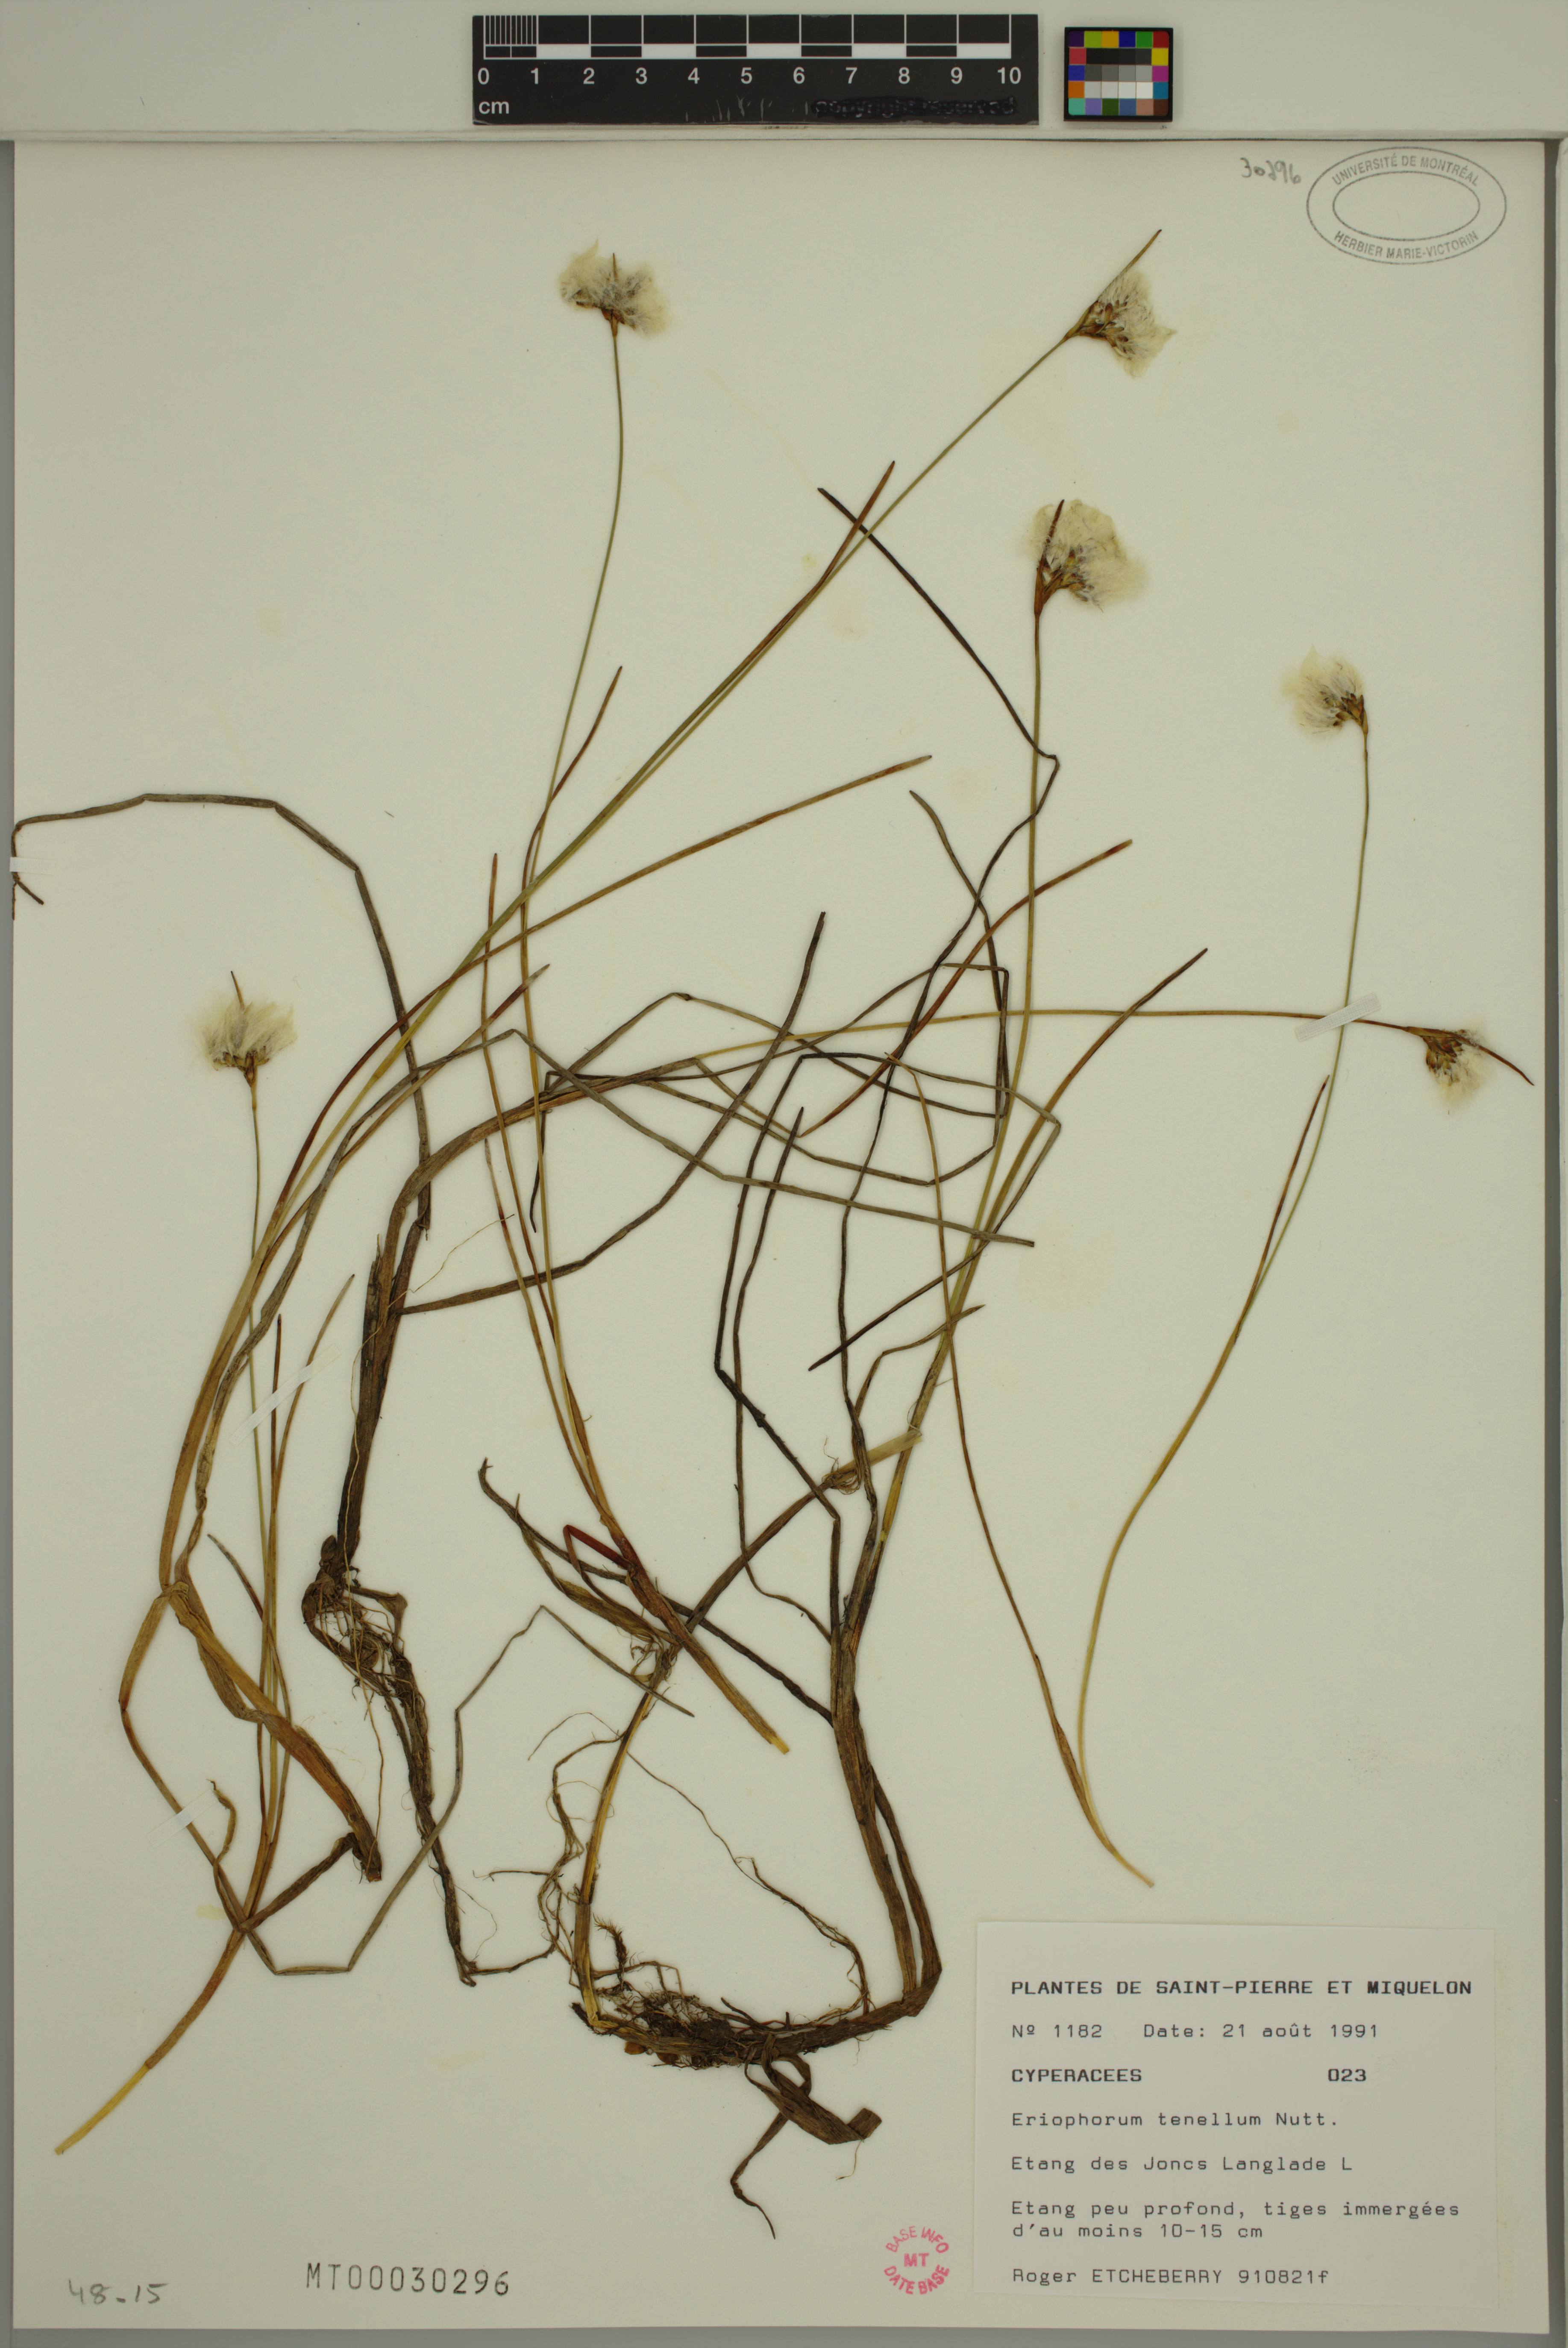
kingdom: Plantae
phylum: Tracheophyta
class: Liliopsida
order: Poales
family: Cyperaceae
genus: Eriophorum
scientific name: Eriophorum tenellum
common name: Few-nerved cottongrass
